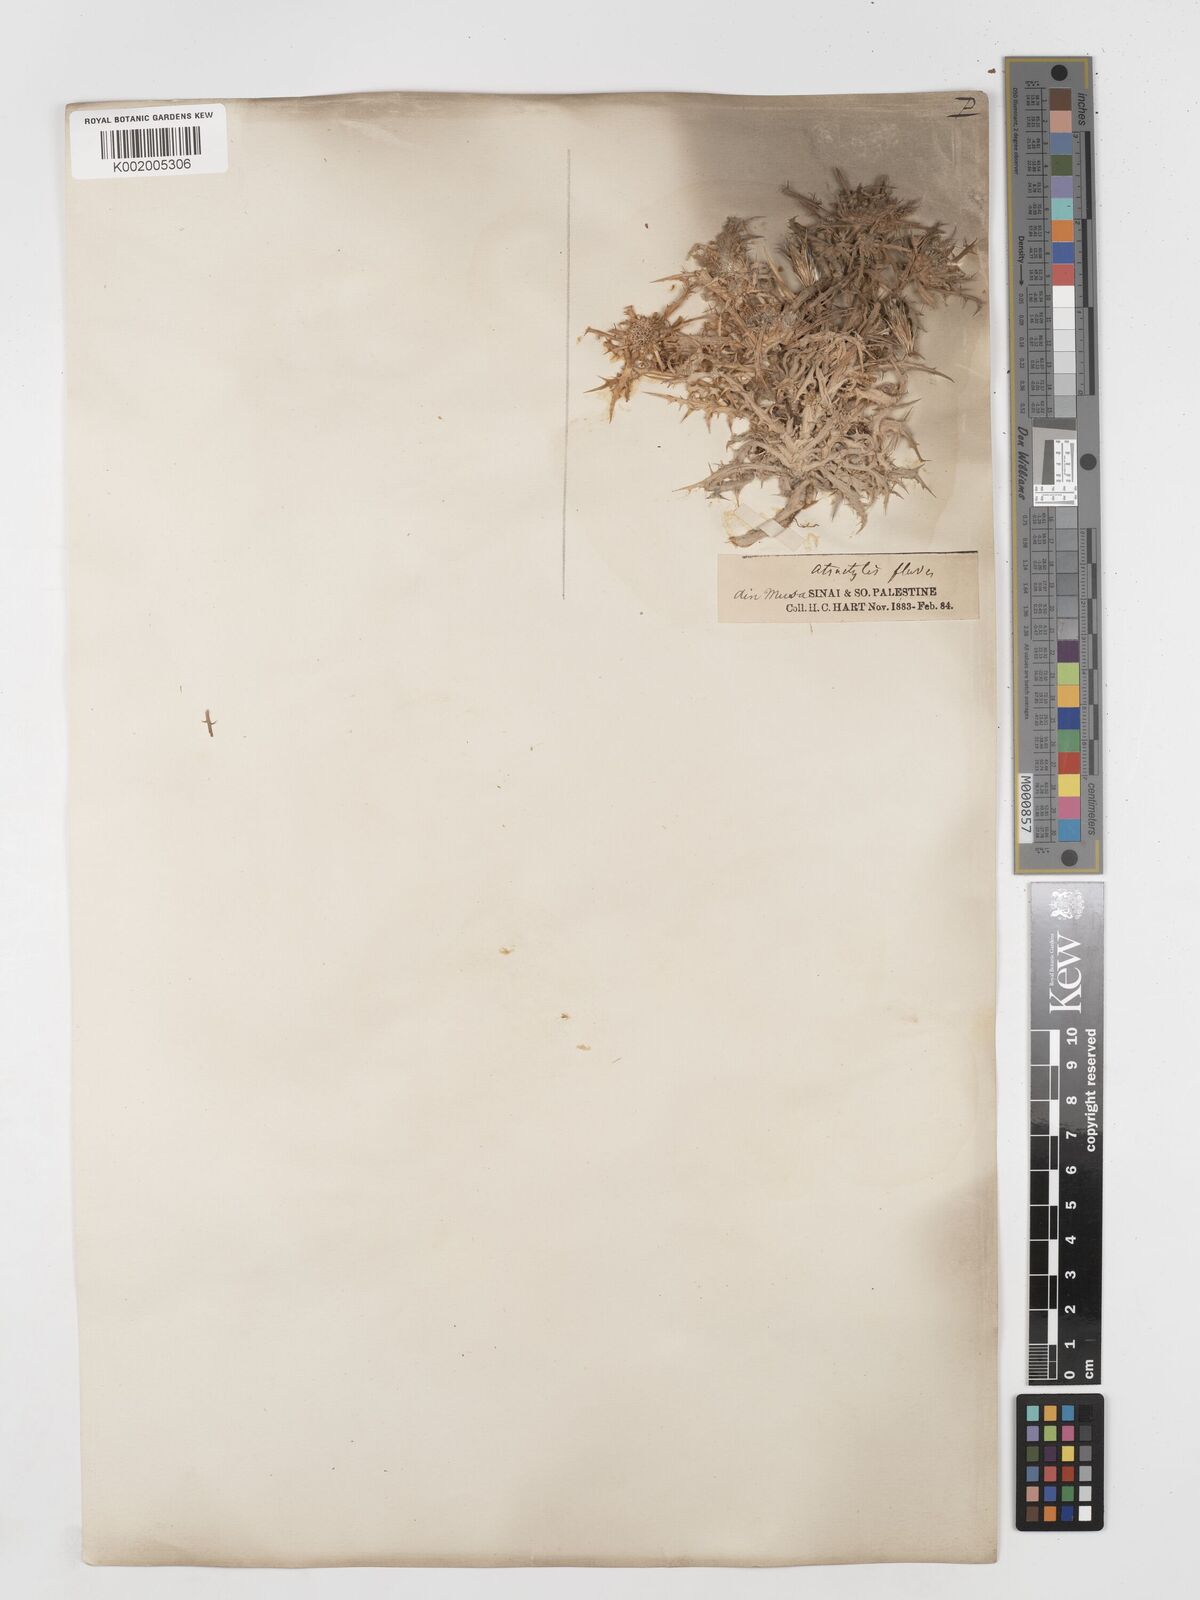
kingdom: Plantae
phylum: Tracheophyta
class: Magnoliopsida
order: Asterales
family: Asteraceae
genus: Atractylis
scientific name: Atractylis carduus
